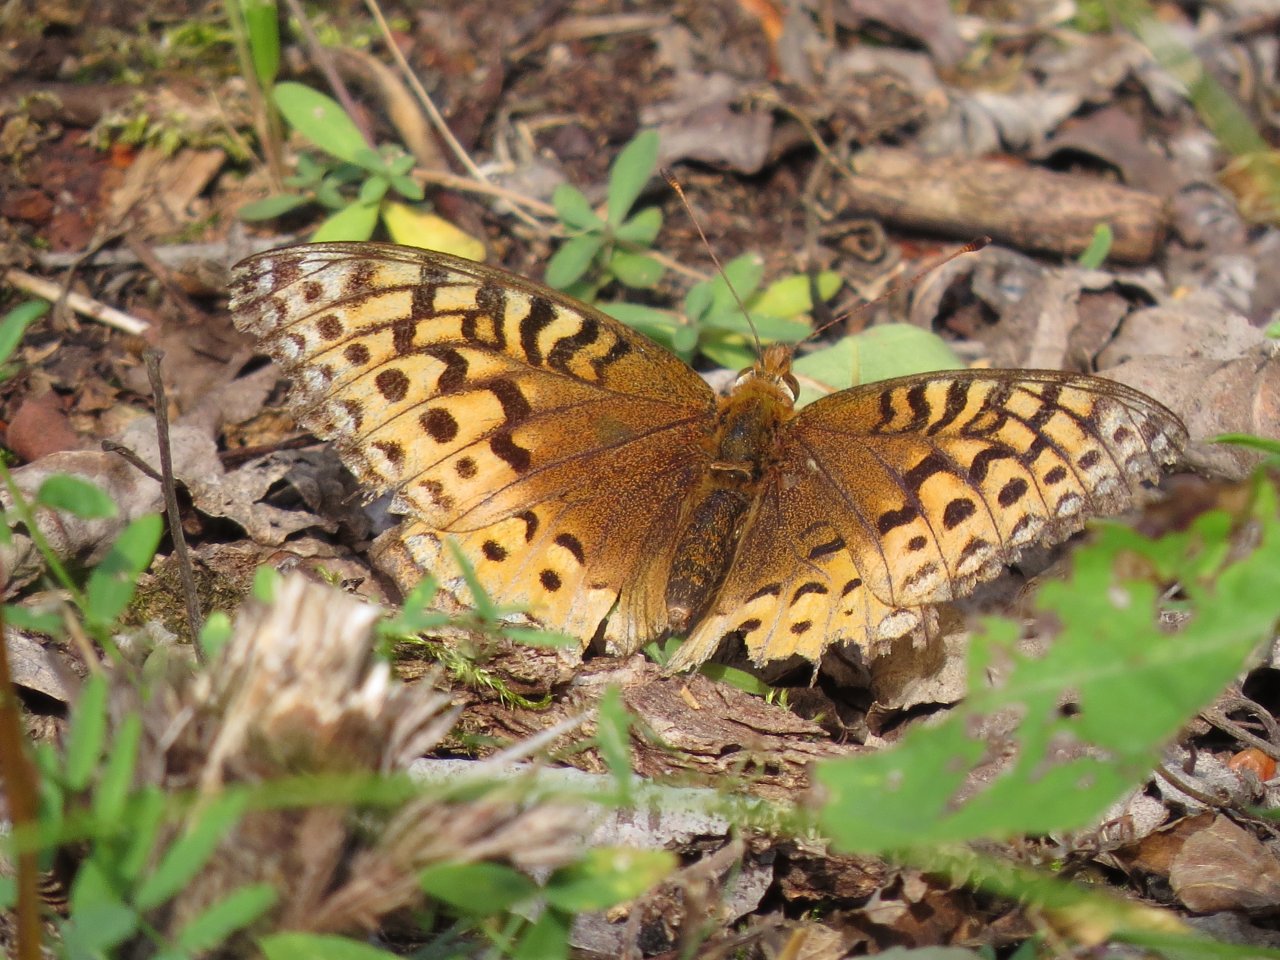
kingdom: Animalia
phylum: Arthropoda
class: Insecta
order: Lepidoptera
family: Nymphalidae
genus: Speyeria
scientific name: Speyeria cybele
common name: Great Spangled Fritillary
